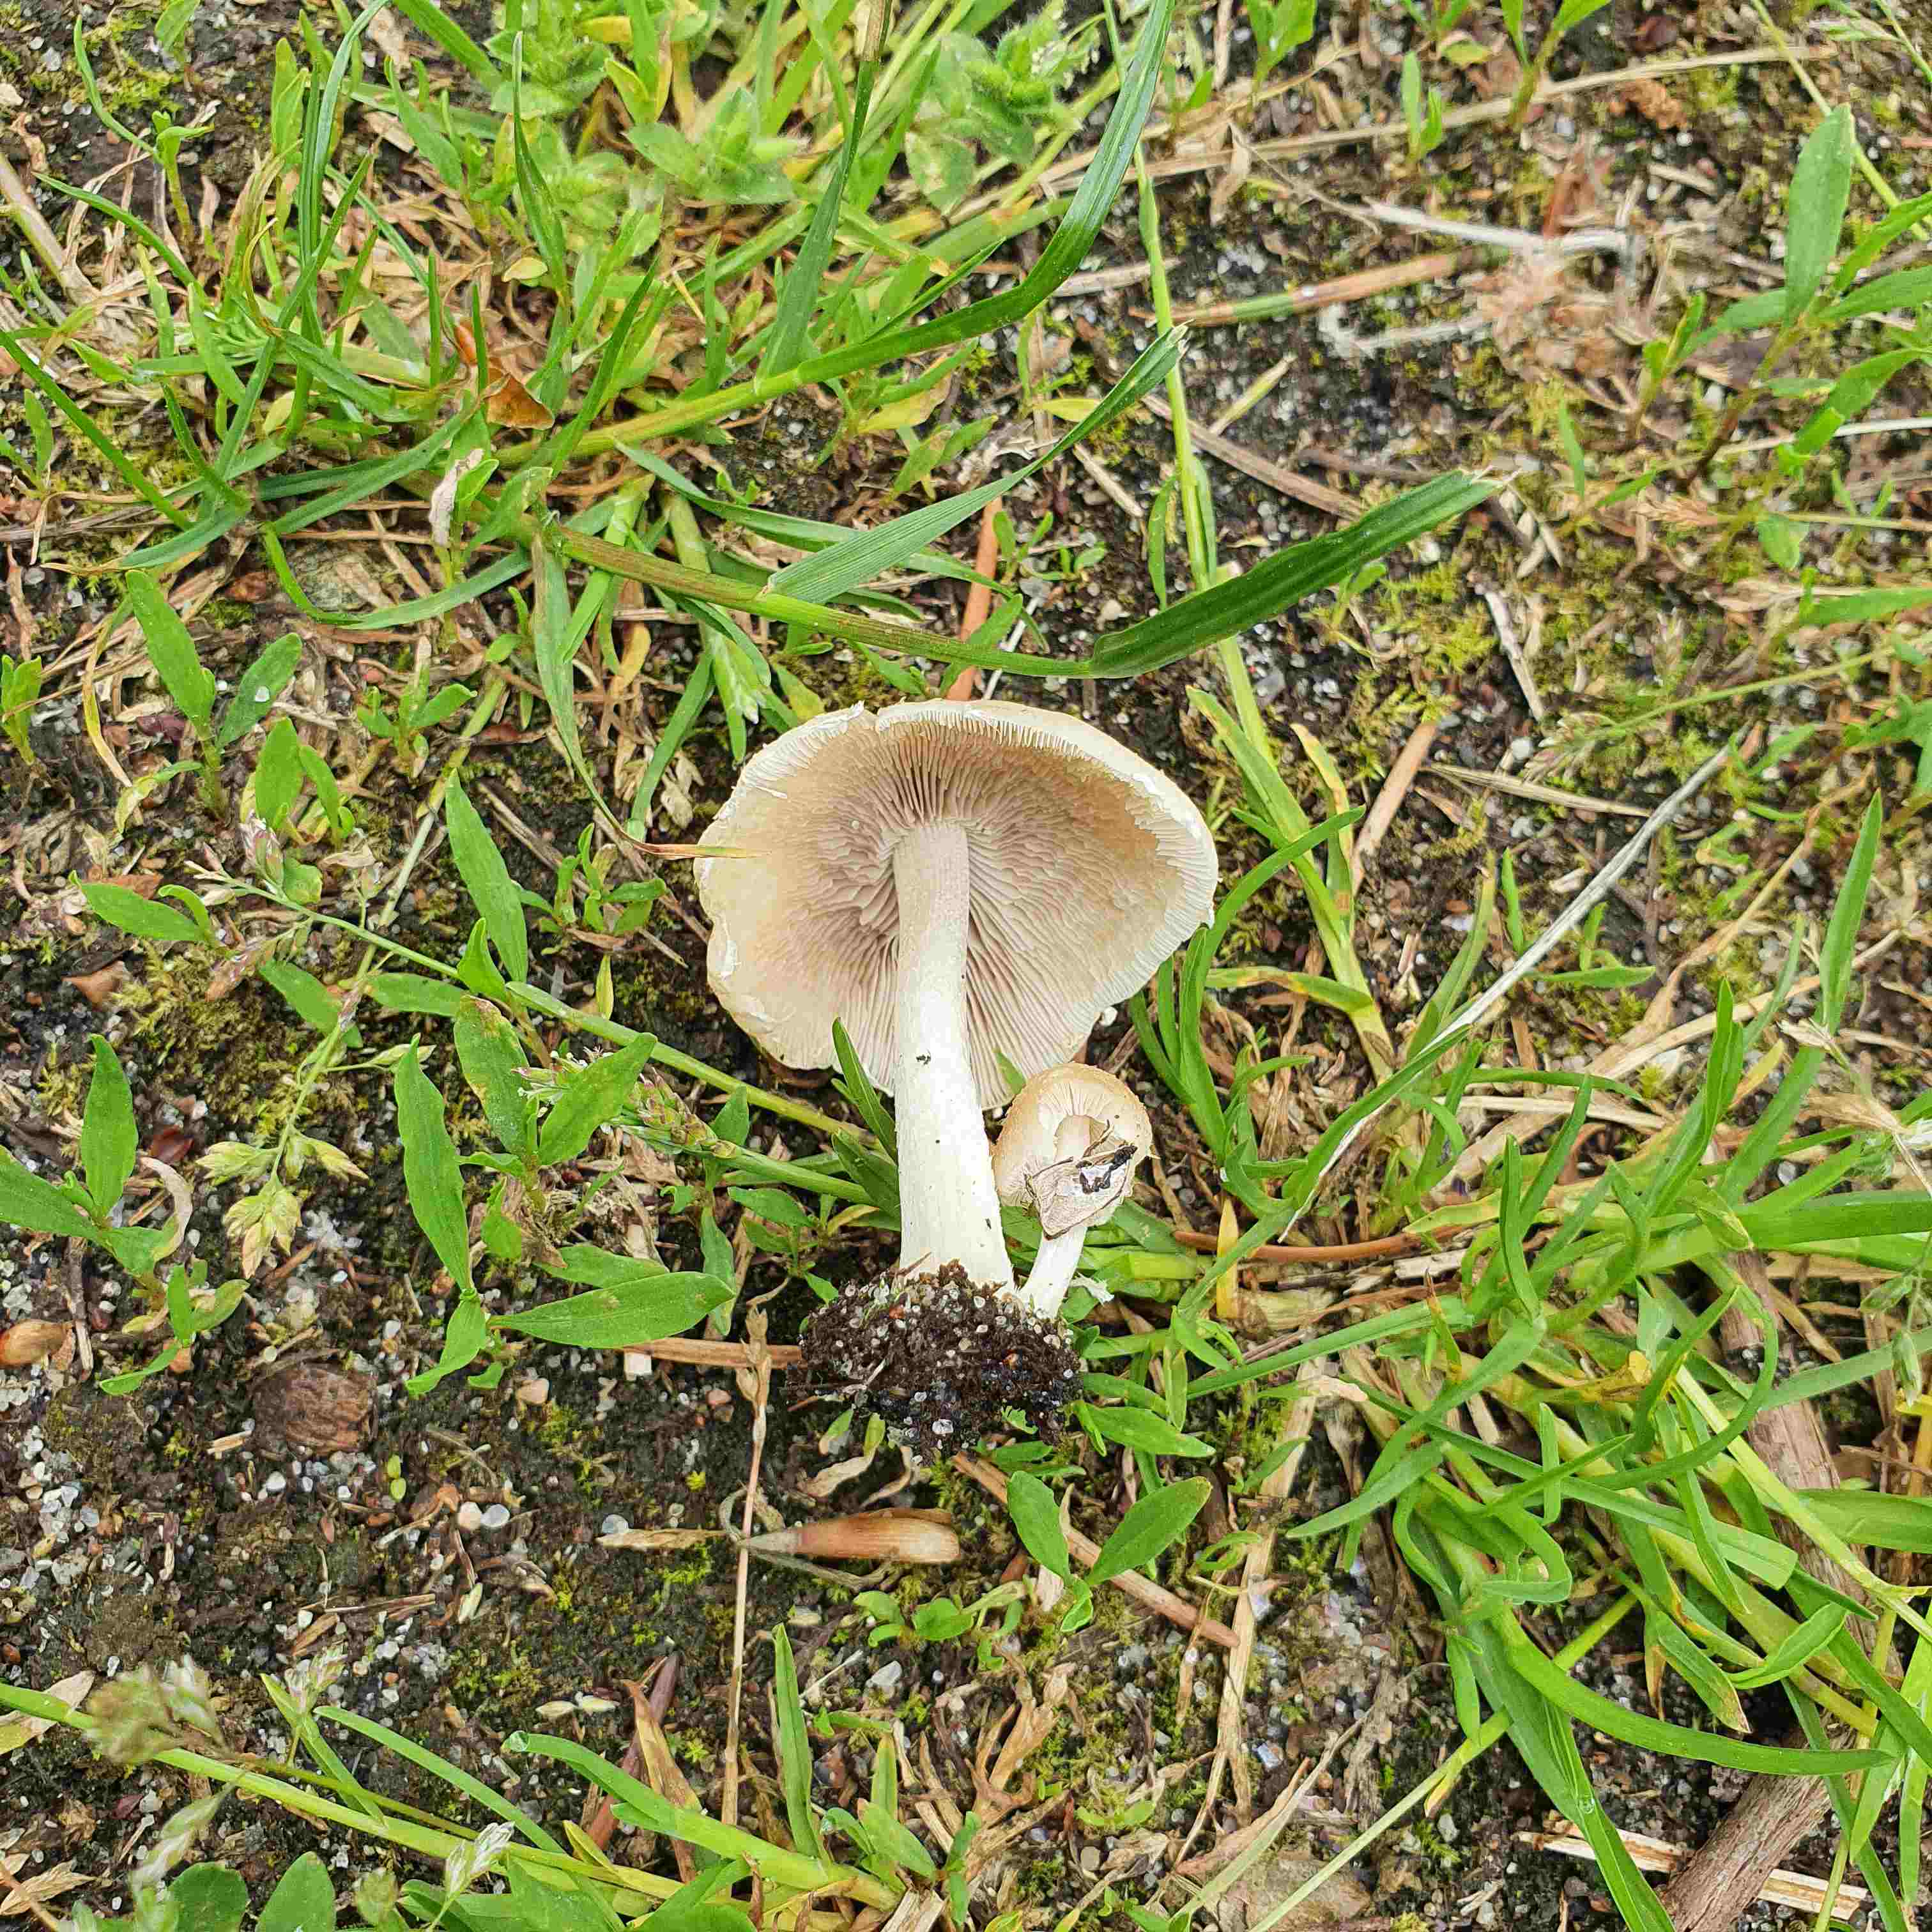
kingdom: Fungi
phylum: Basidiomycota
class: Agaricomycetes
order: Agaricales
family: Psathyrellaceae
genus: Candolleomyces
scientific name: Candolleomyces candolleanus
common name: Candolles mørkhat
